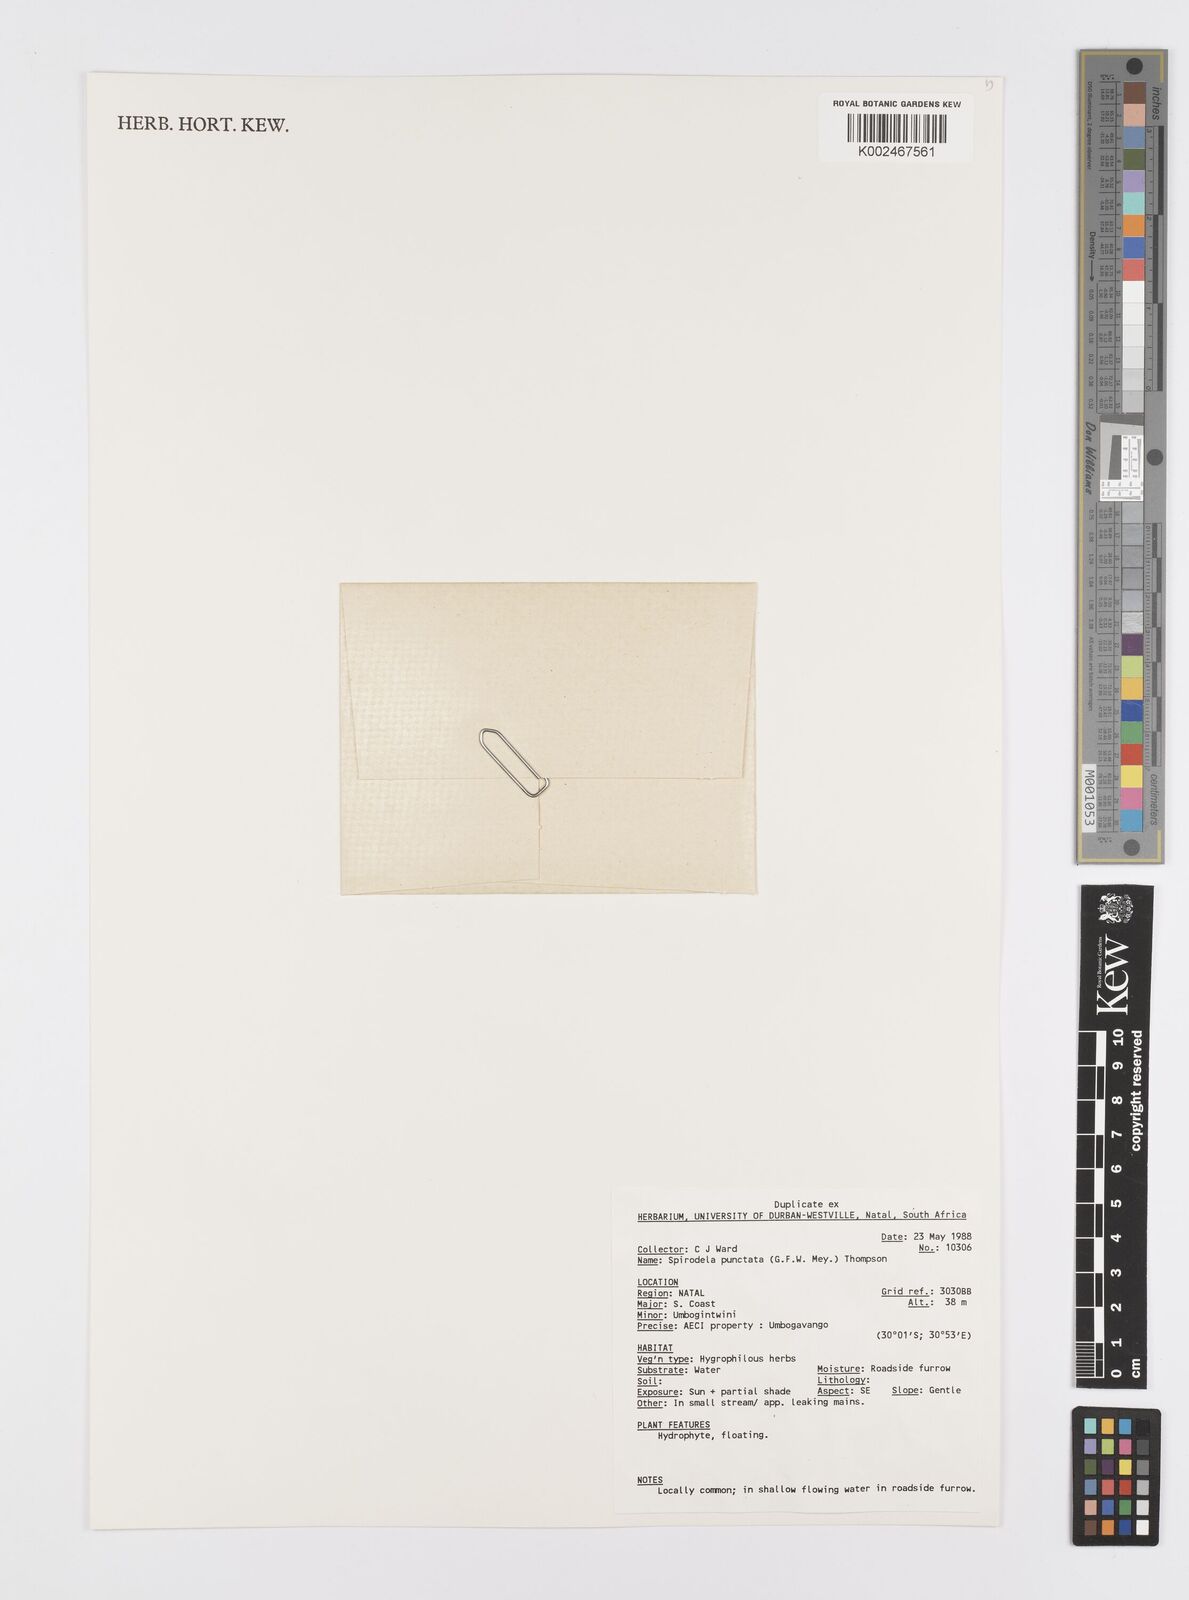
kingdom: Plantae
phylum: Tracheophyta
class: Liliopsida
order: Alismatales
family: Araceae
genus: Spirodela
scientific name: Spirodela punctata
